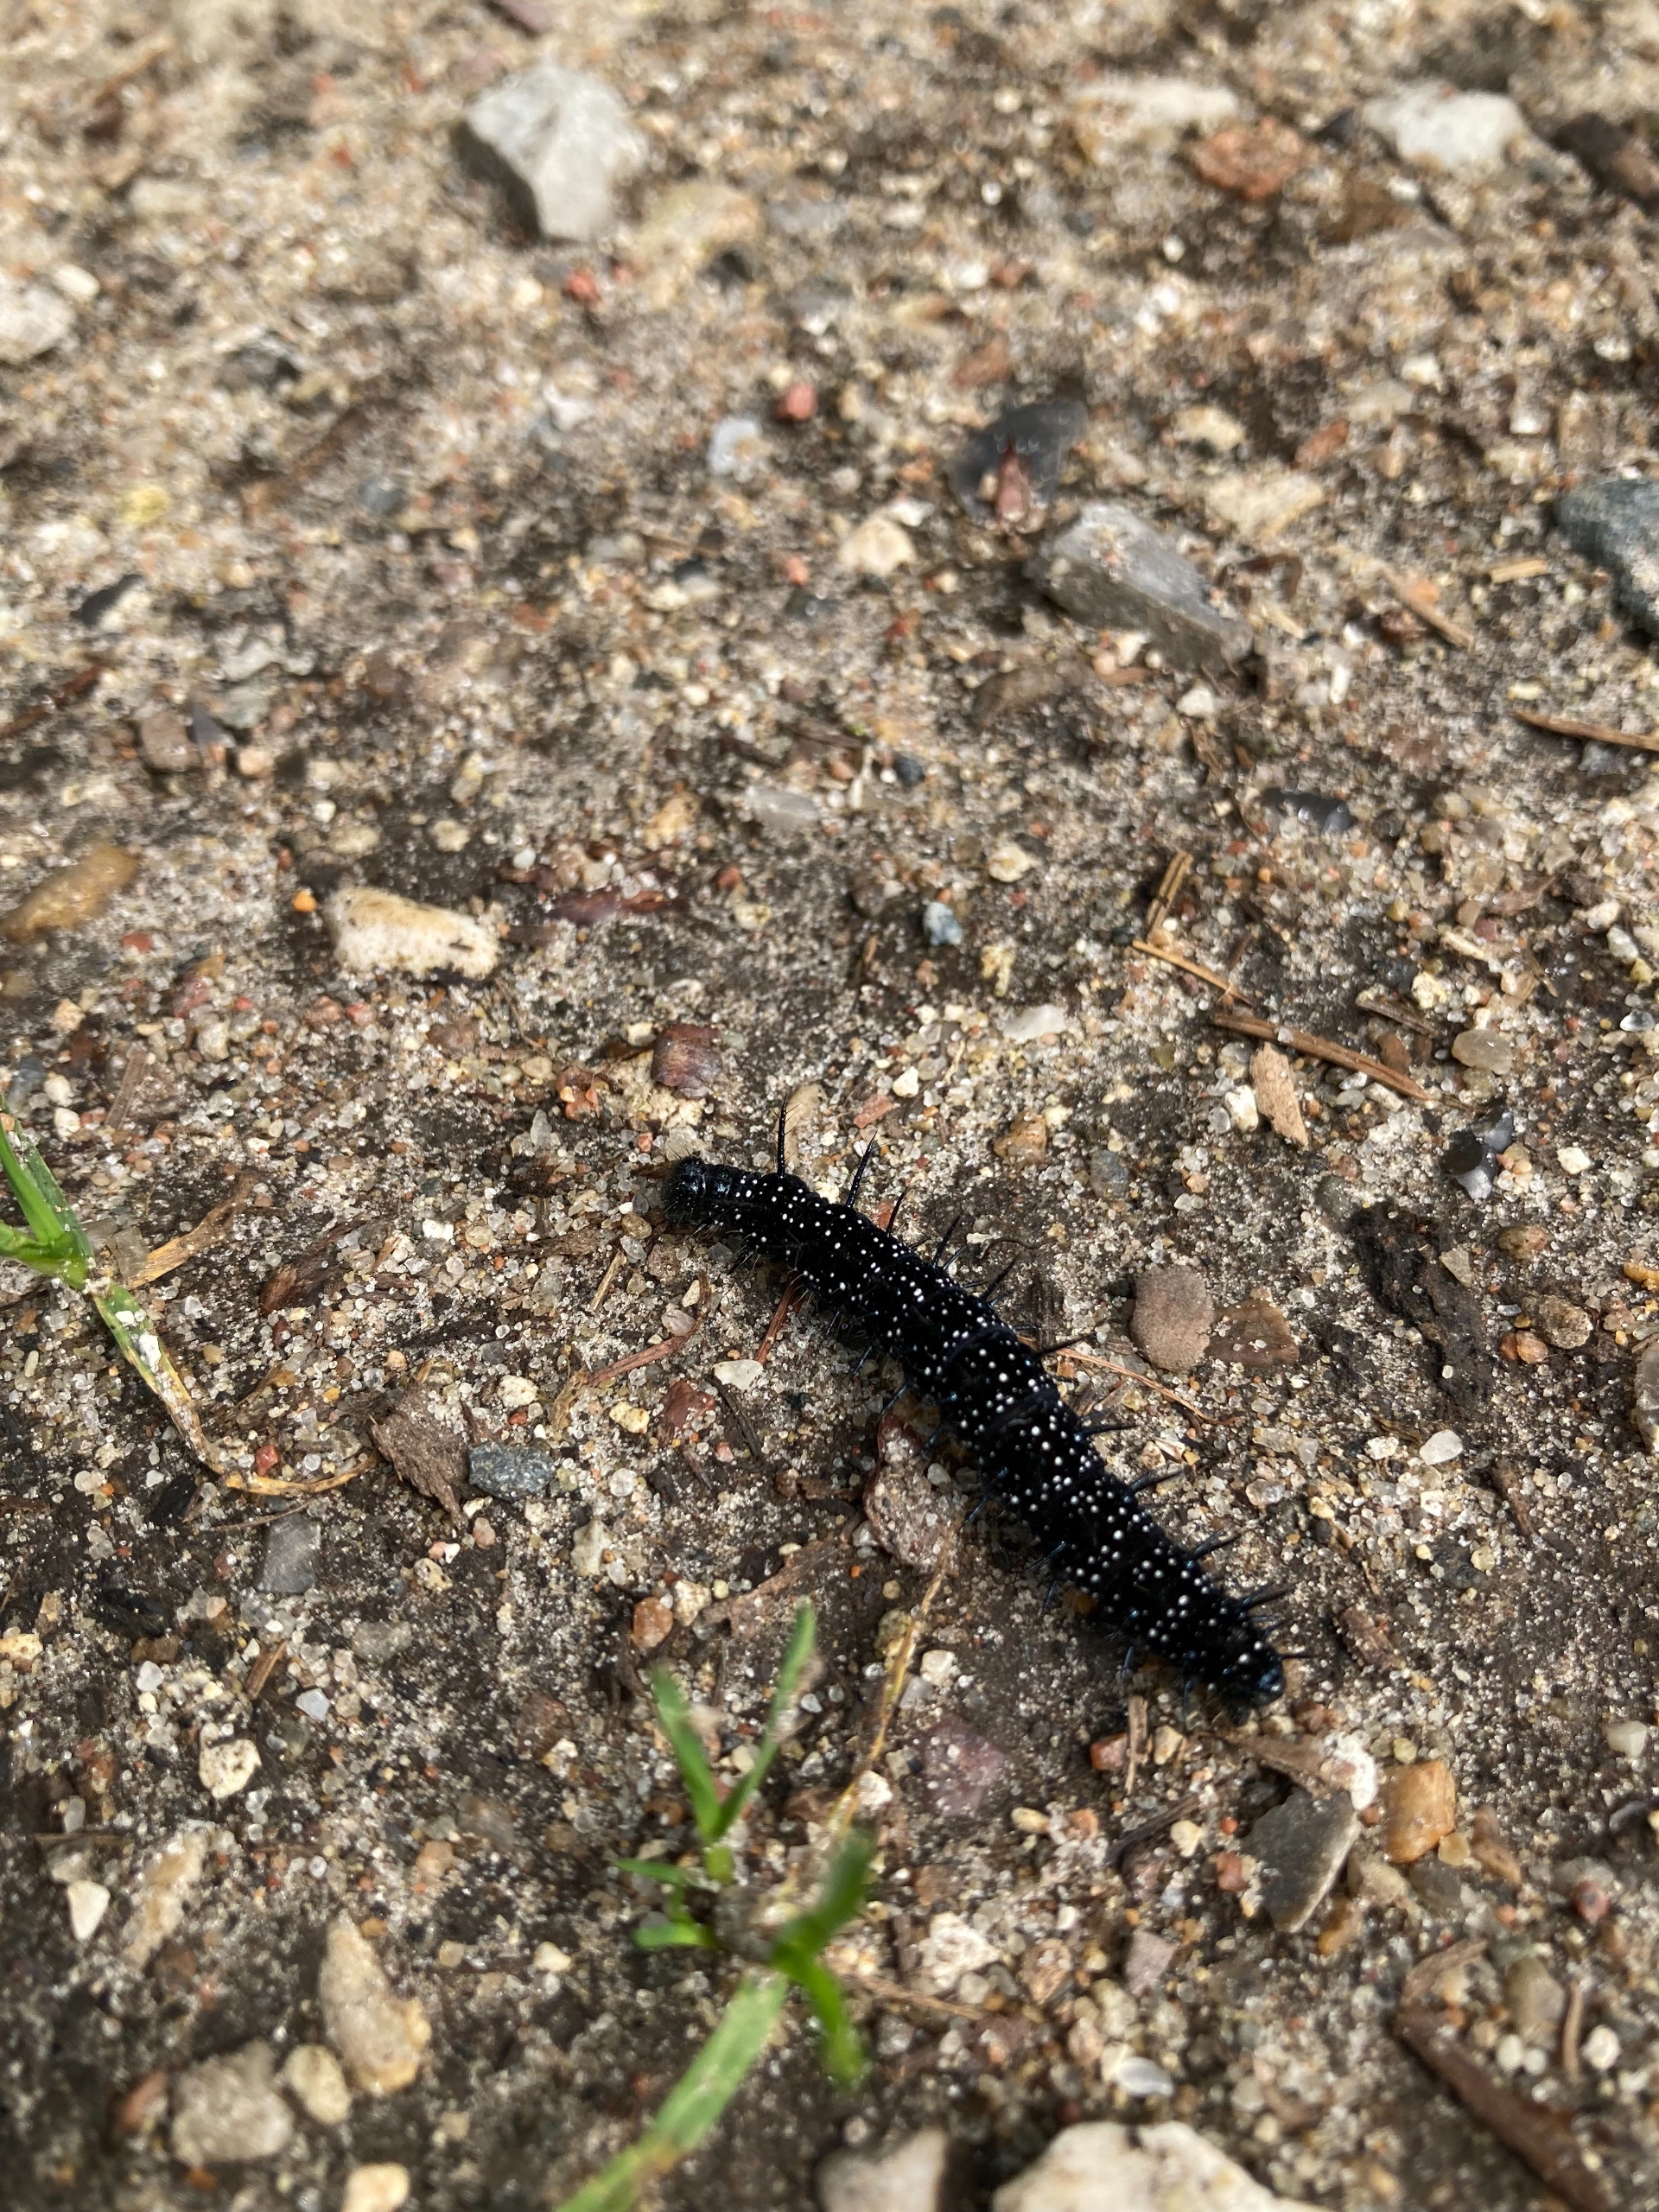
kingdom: Animalia
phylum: Arthropoda
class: Insecta
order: Lepidoptera
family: Nymphalidae
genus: Aglais
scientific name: Aglais io
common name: Dagpåfugleøje
